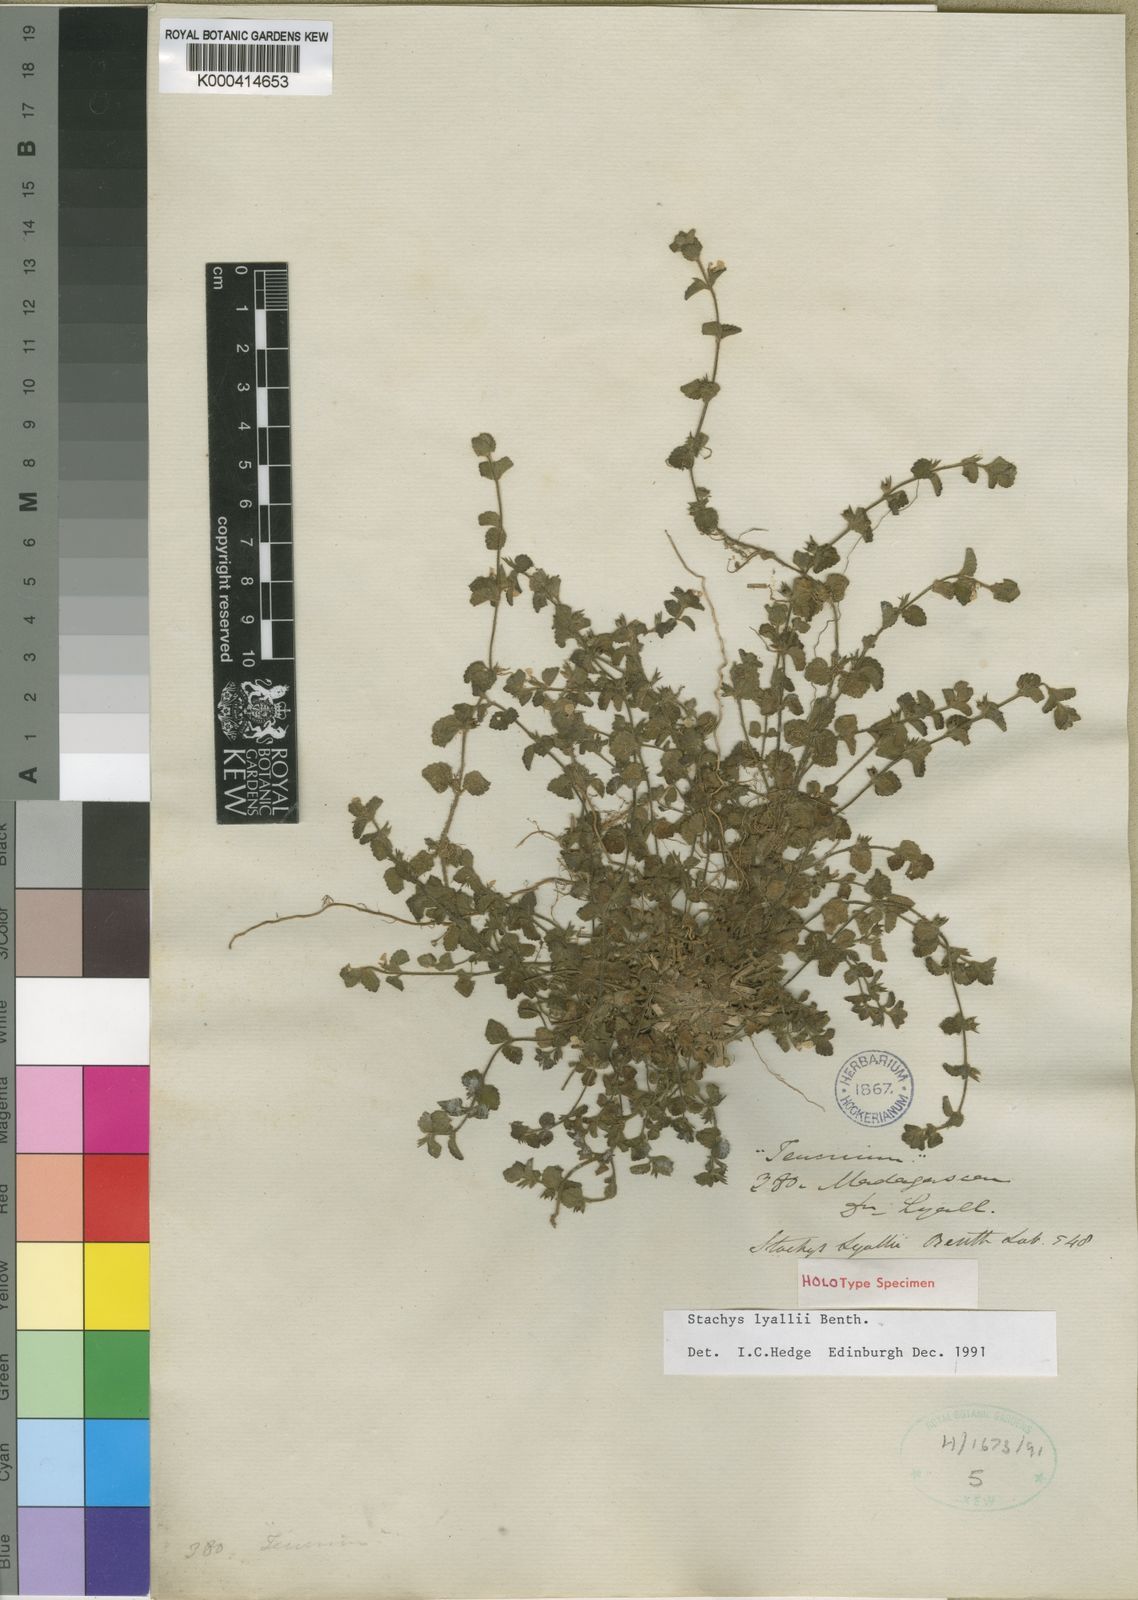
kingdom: Plantae
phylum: Tracheophyta
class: Magnoliopsida
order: Lamiales
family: Lamiaceae
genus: Stachys
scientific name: Stachys lyallii
